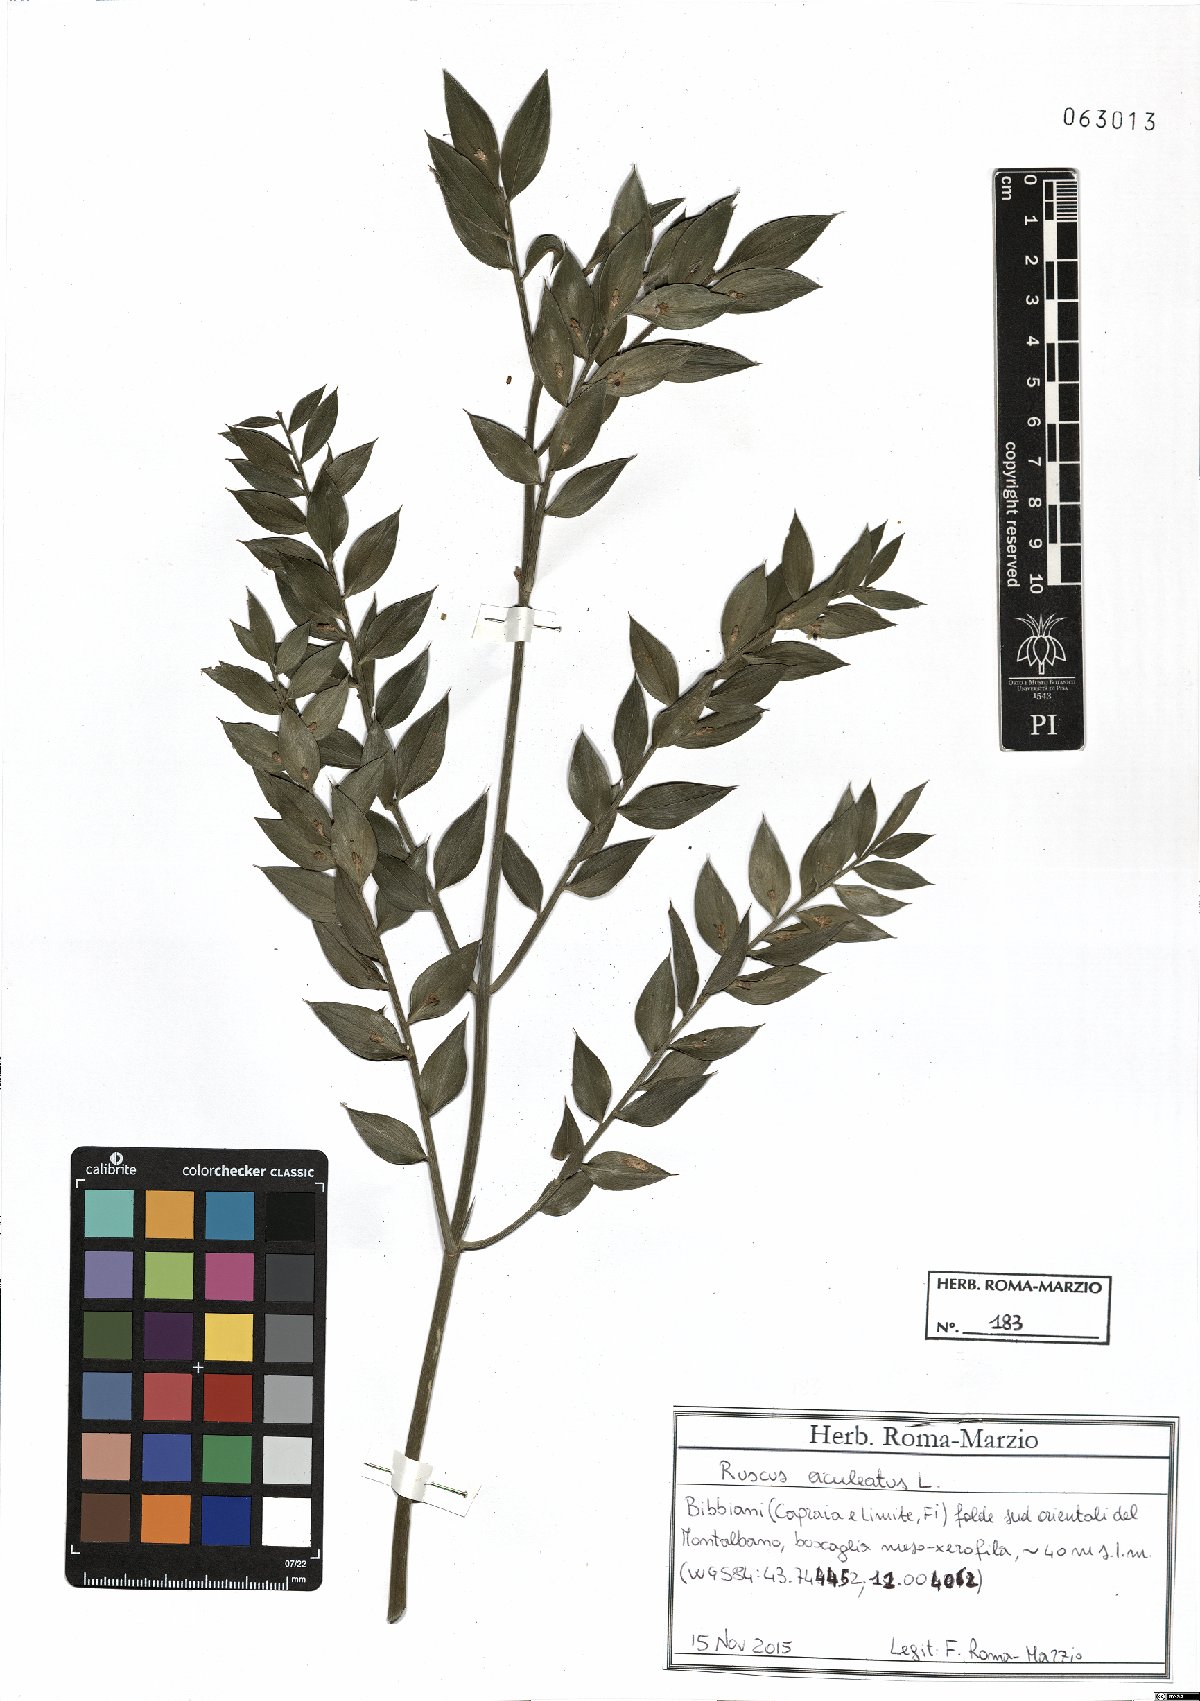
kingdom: Plantae
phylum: Tracheophyta
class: Liliopsida
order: Asparagales
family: Asparagaceae
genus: Ruscus
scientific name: Ruscus aculeatus
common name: Butcher's-broom
